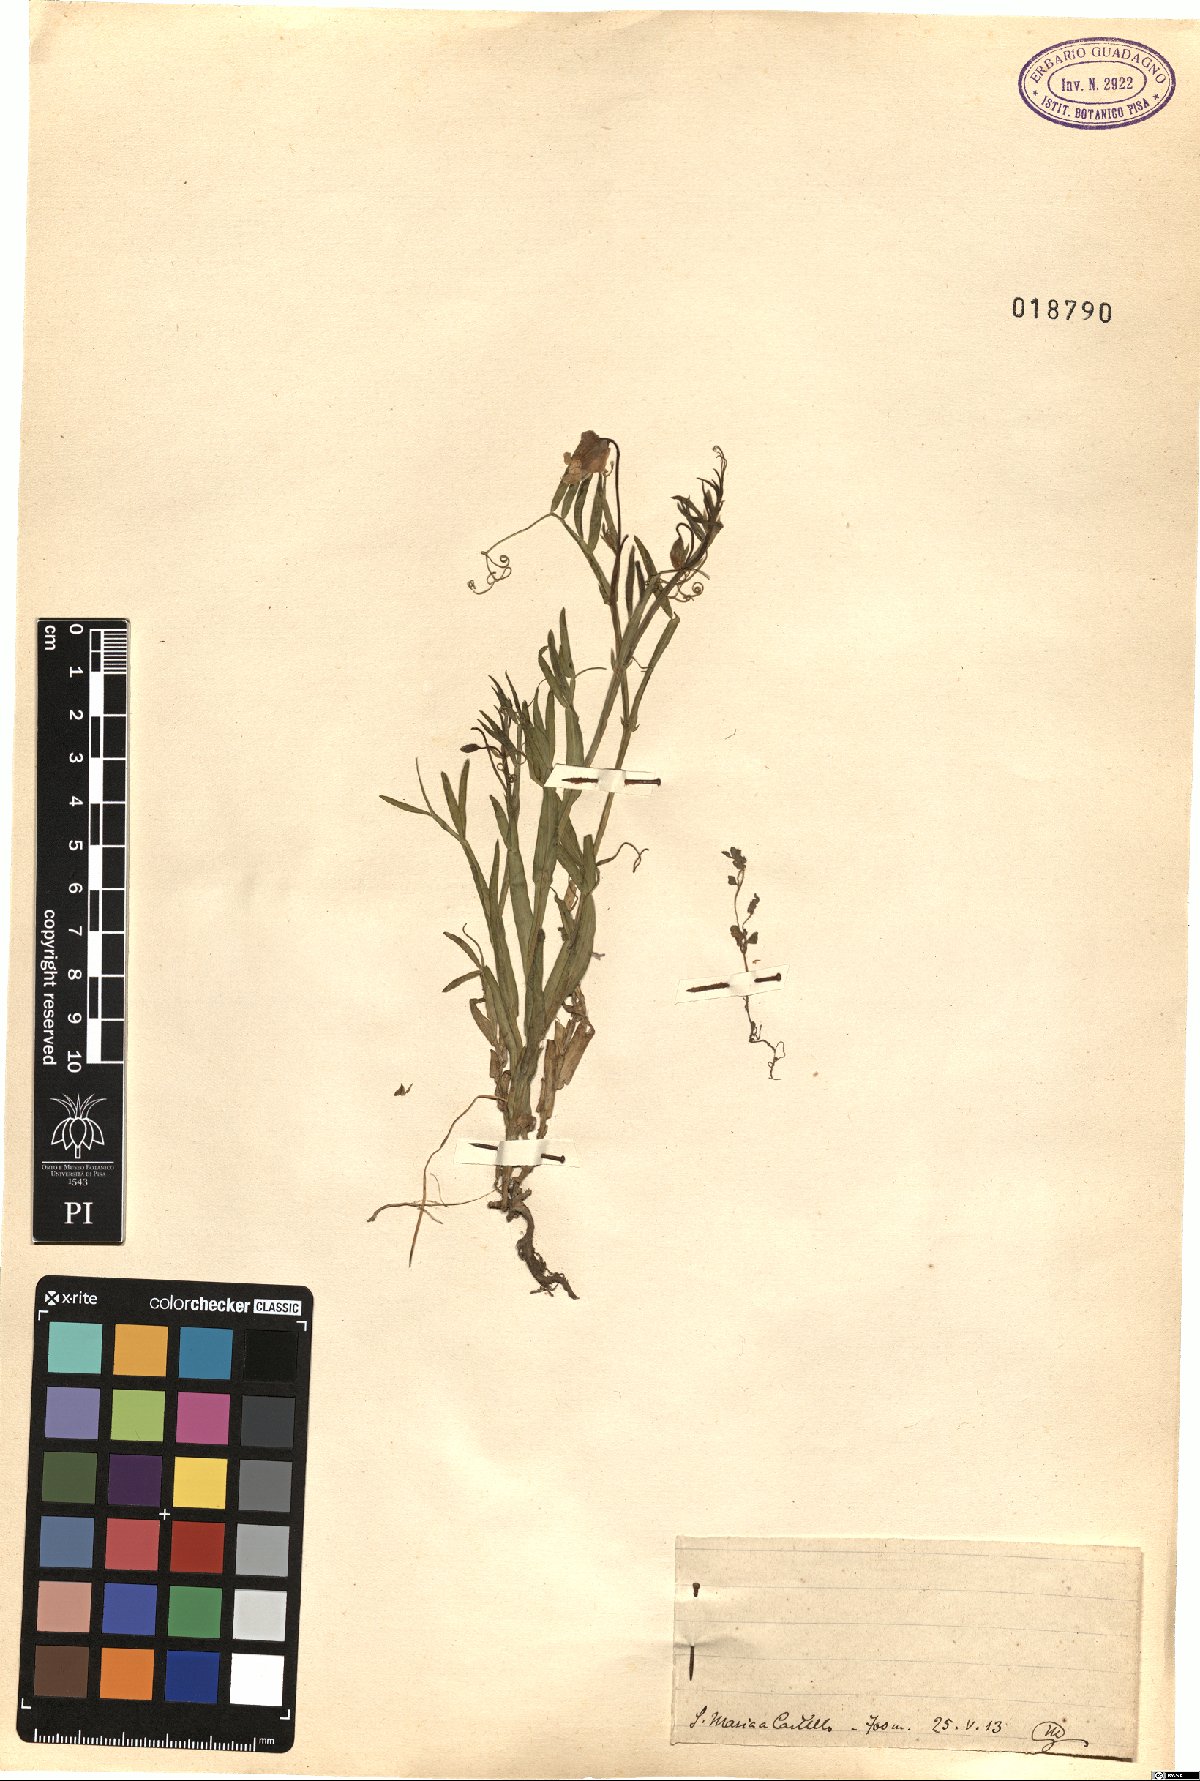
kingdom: Plantae
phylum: Tracheophyta
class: Magnoliopsida
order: Fabales
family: Fabaceae
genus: Lathyrus
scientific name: Lathyrus
